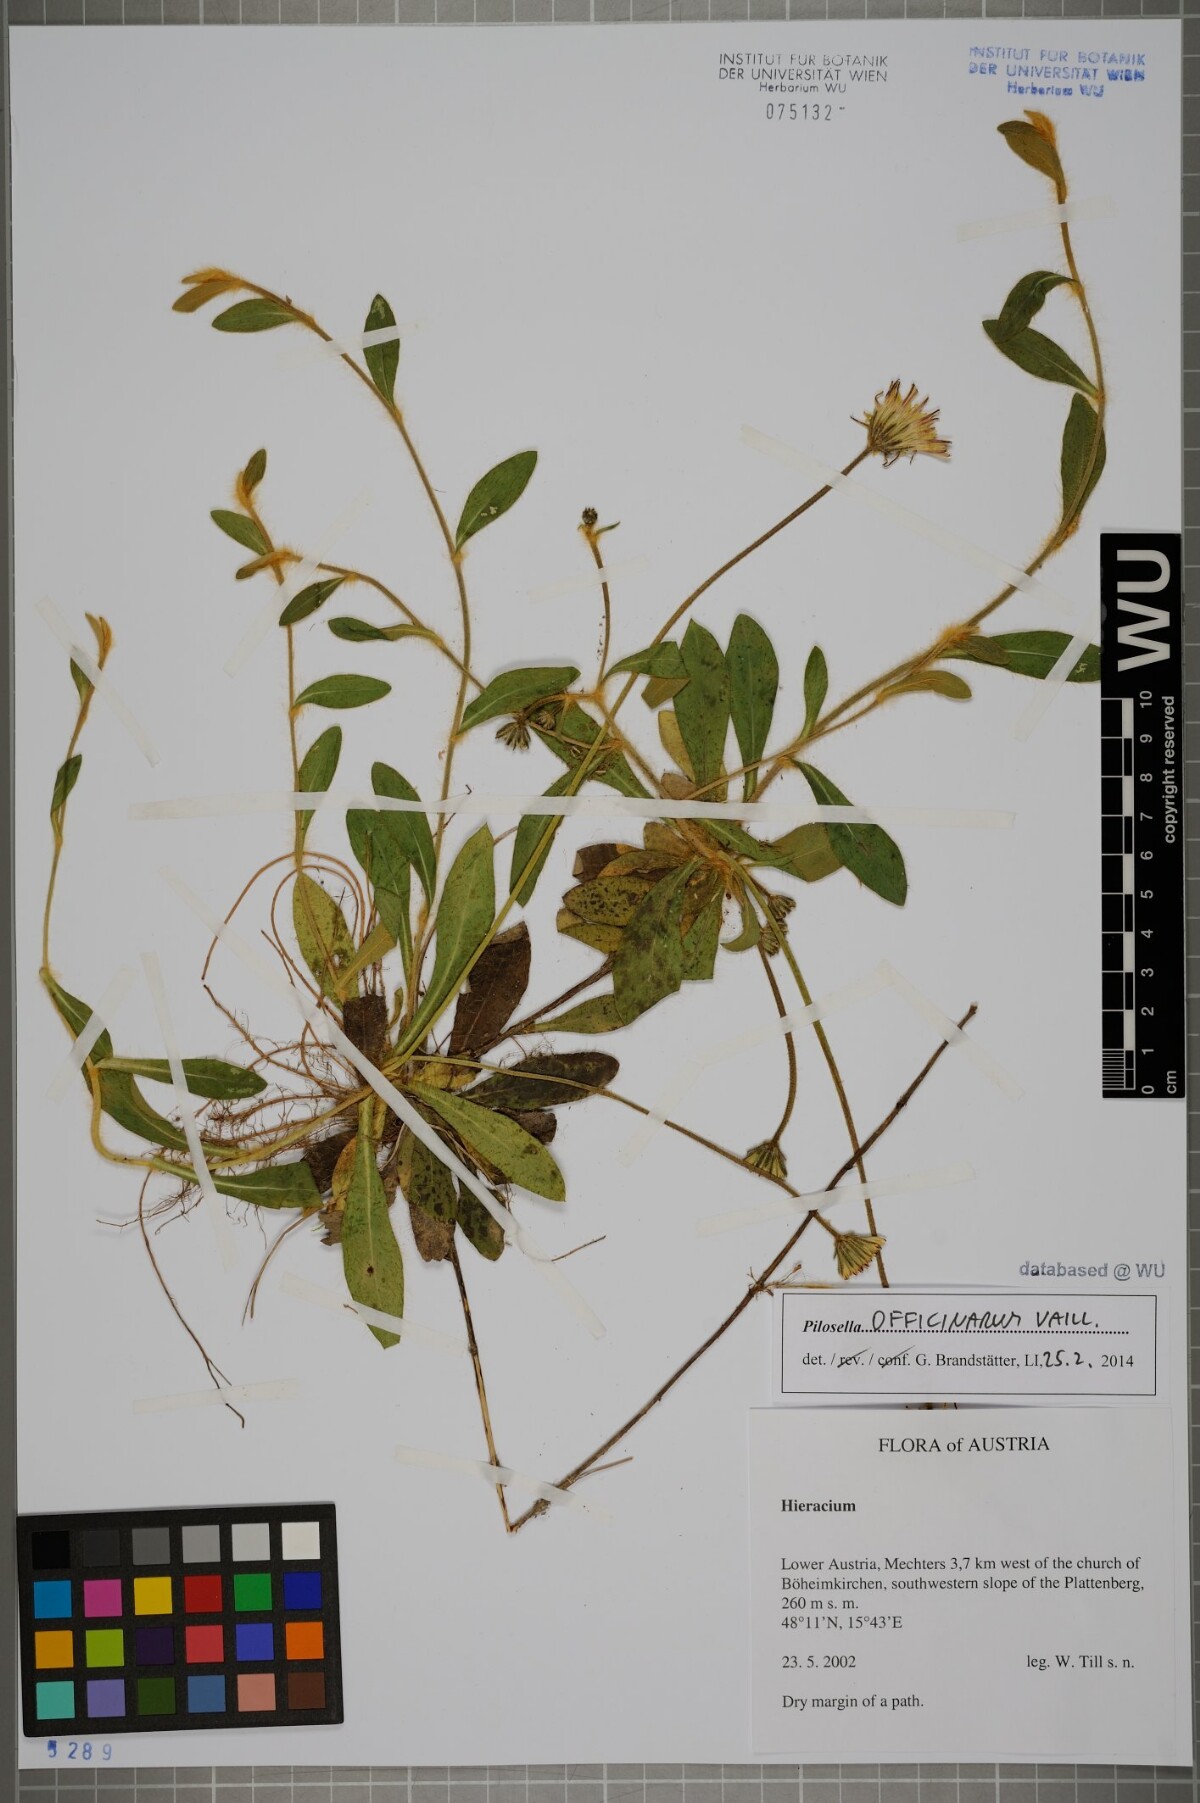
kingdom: Plantae
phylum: Tracheophyta
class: Magnoliopsida
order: Asterales
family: Asteraceae
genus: Pilosella
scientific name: Pilosella officinarum
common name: Mouse-ear hawkweed
